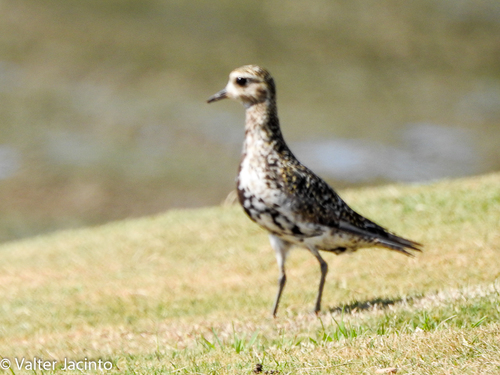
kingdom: Animalia
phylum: Chordata
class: Aves
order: Charadriiformes
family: Charadriidae
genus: Pluvialis
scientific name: Pluvialis apricaria
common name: European golden plover
